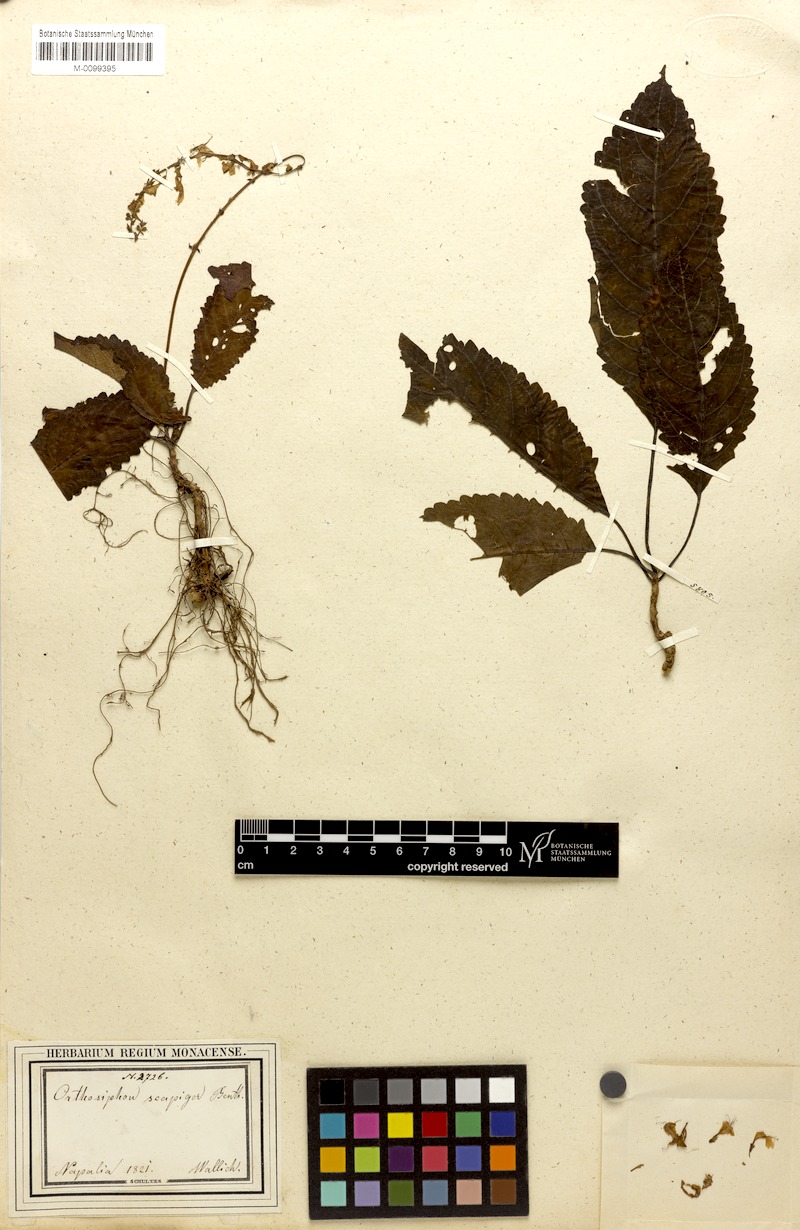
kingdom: Plantae
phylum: Tracheophyta
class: Magnoliopsida
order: Lamiales
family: Lamiaceae
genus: Orthosiphon
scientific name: Orthosiphon scapiger
